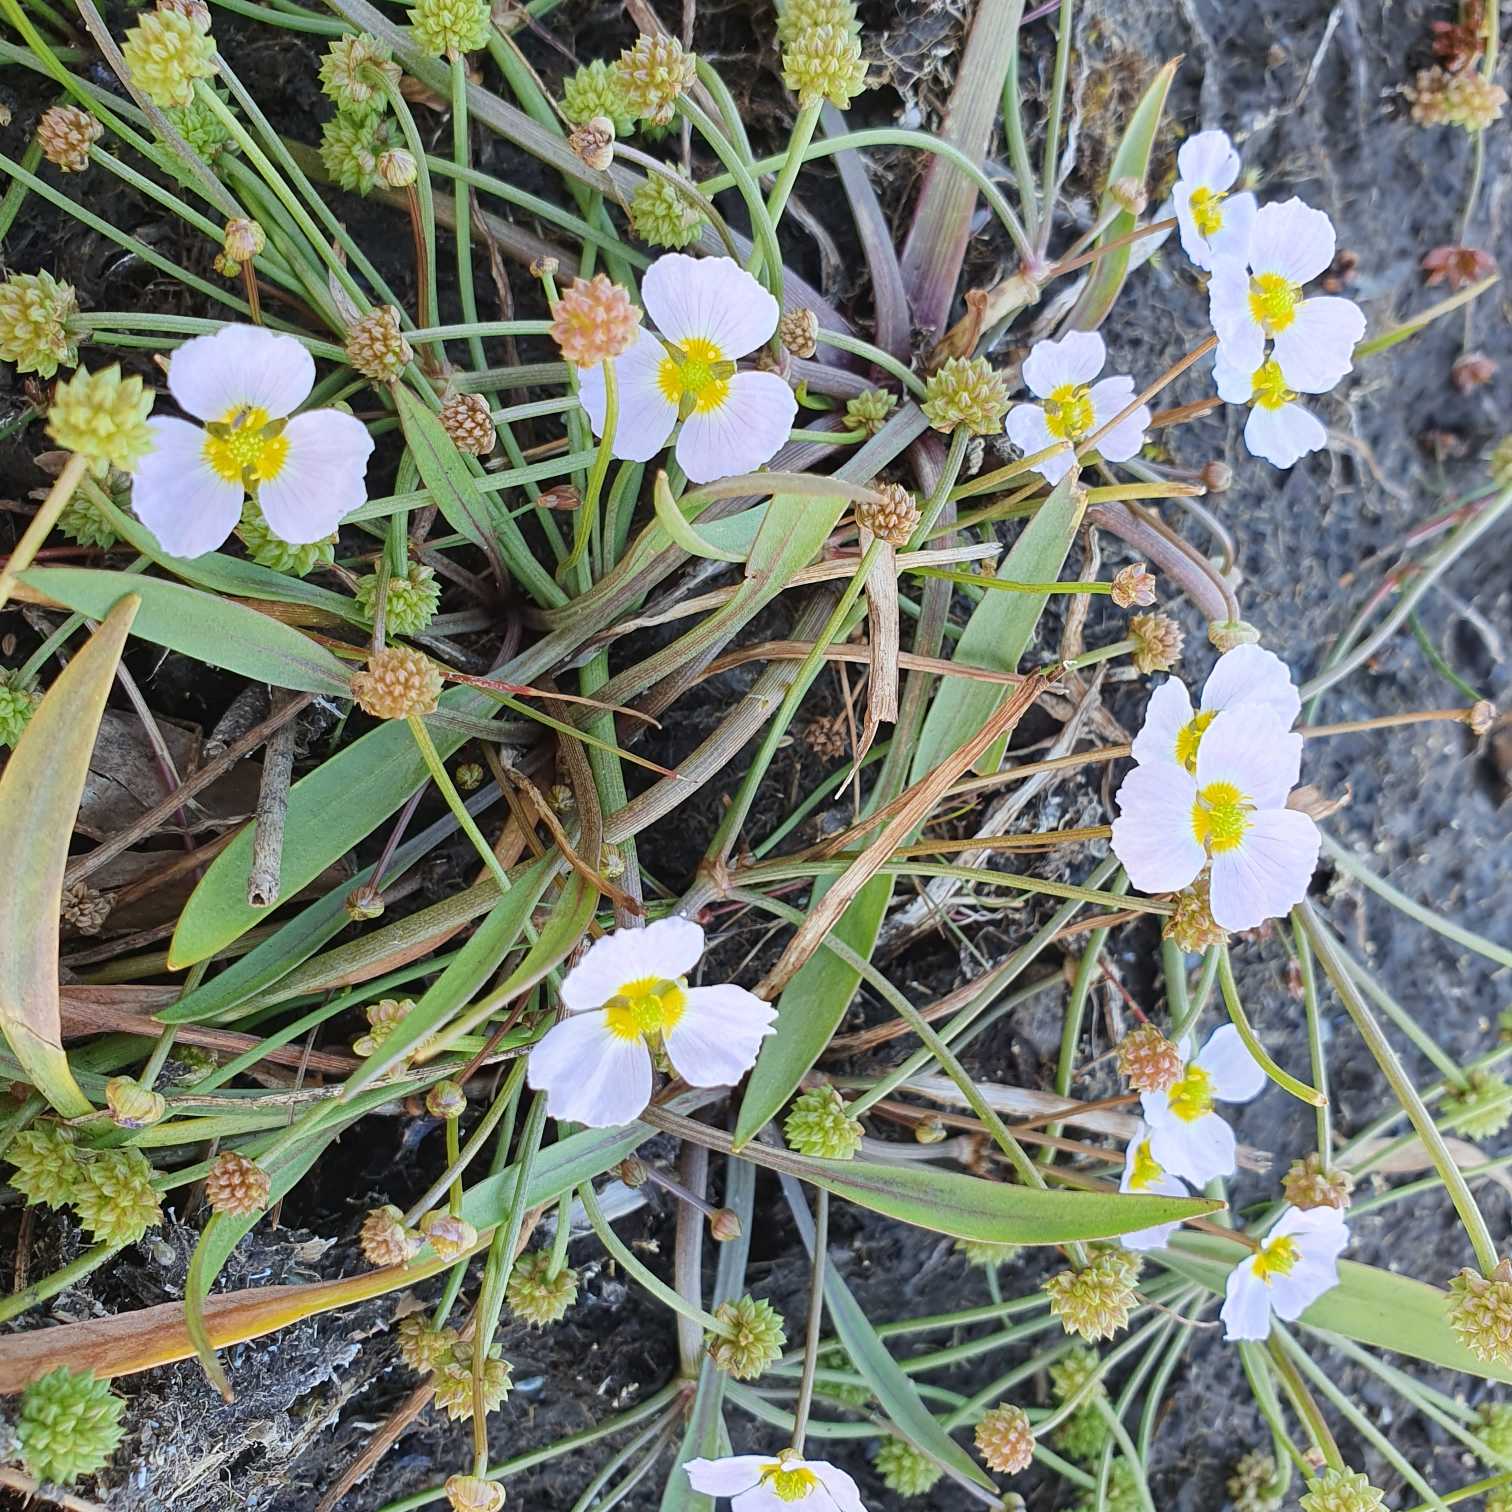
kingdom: Plantae
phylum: Tracheophyta
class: Liliopsida
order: Alismatales
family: Alismataceae
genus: Baldellia
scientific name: Baldellia ranunculoides
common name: Søpryd
